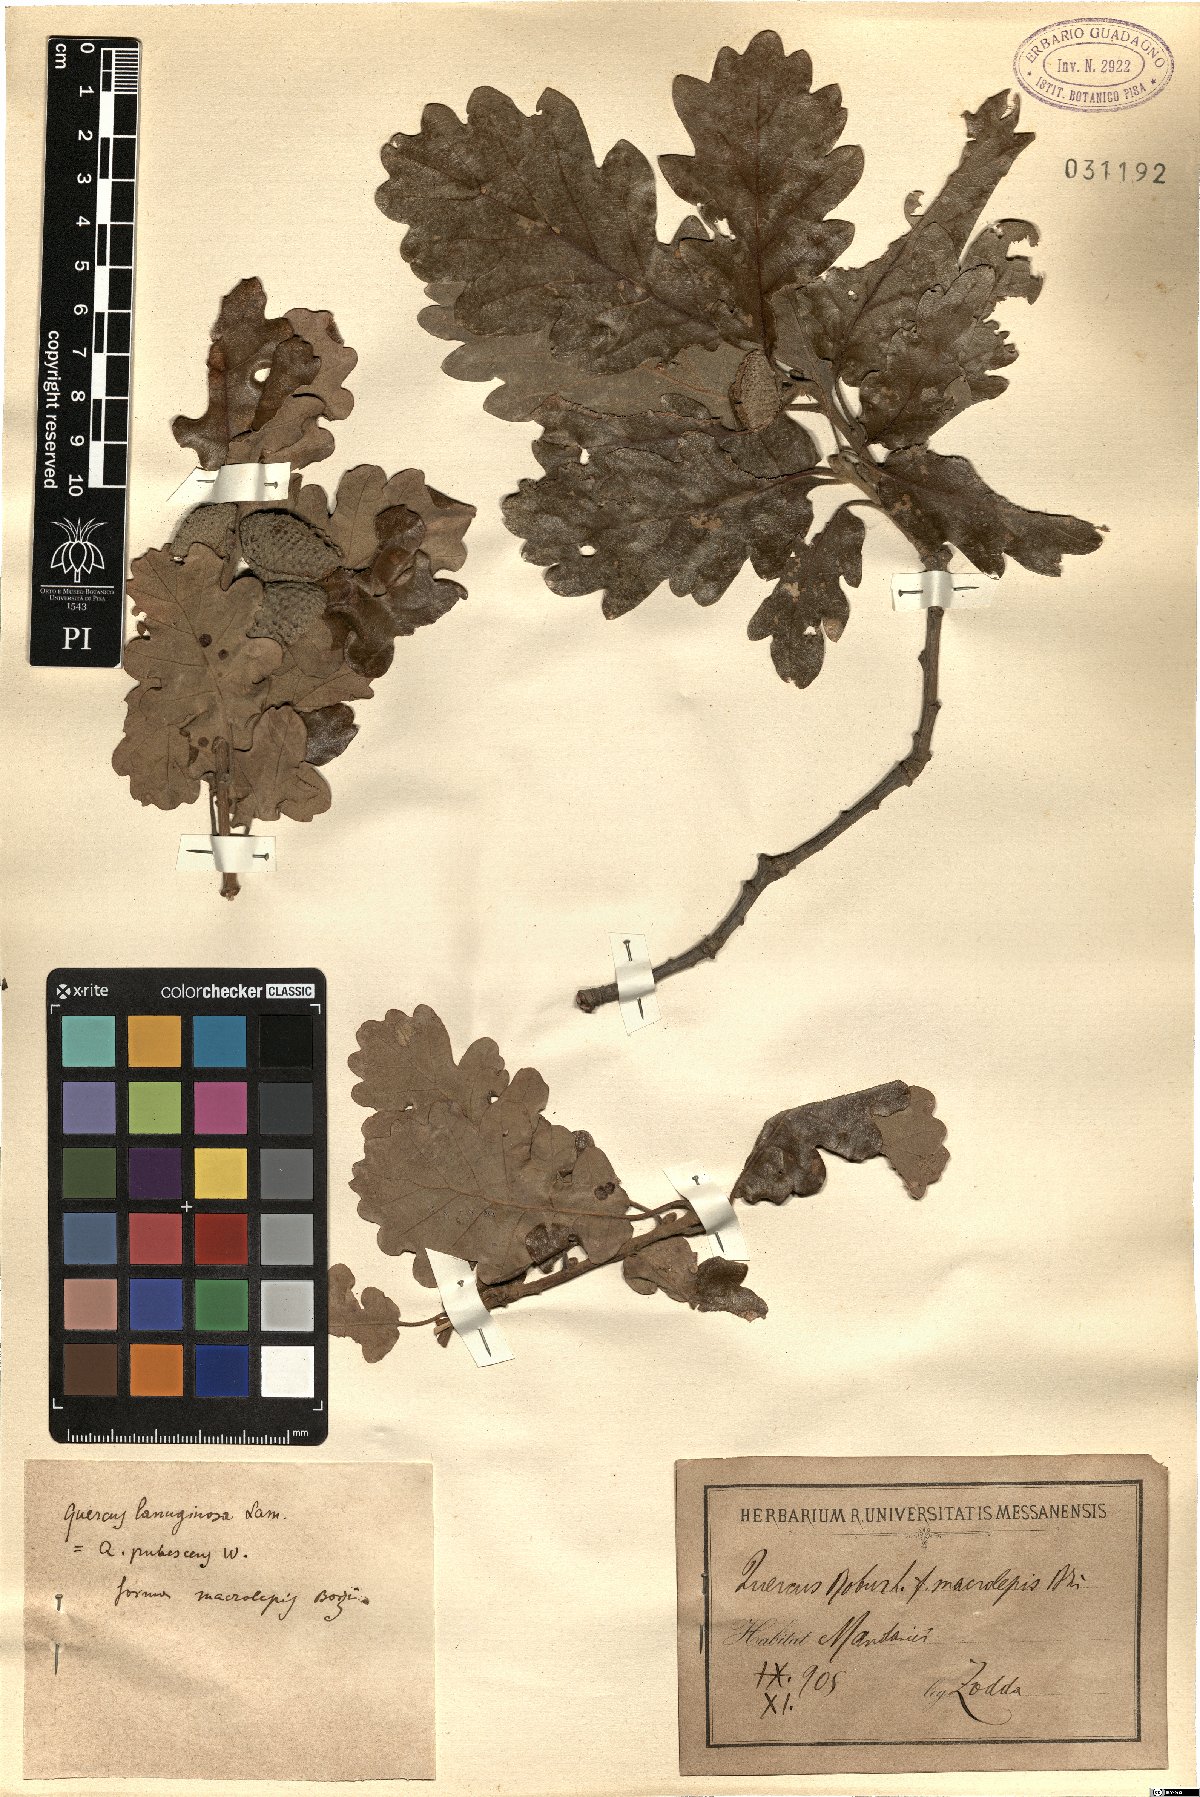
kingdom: Plantae
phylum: Tracheophyta
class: Magnoliopsida
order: Fagales
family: Fagaceae
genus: Quercus
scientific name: Quercus pubescens
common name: Downy oak
